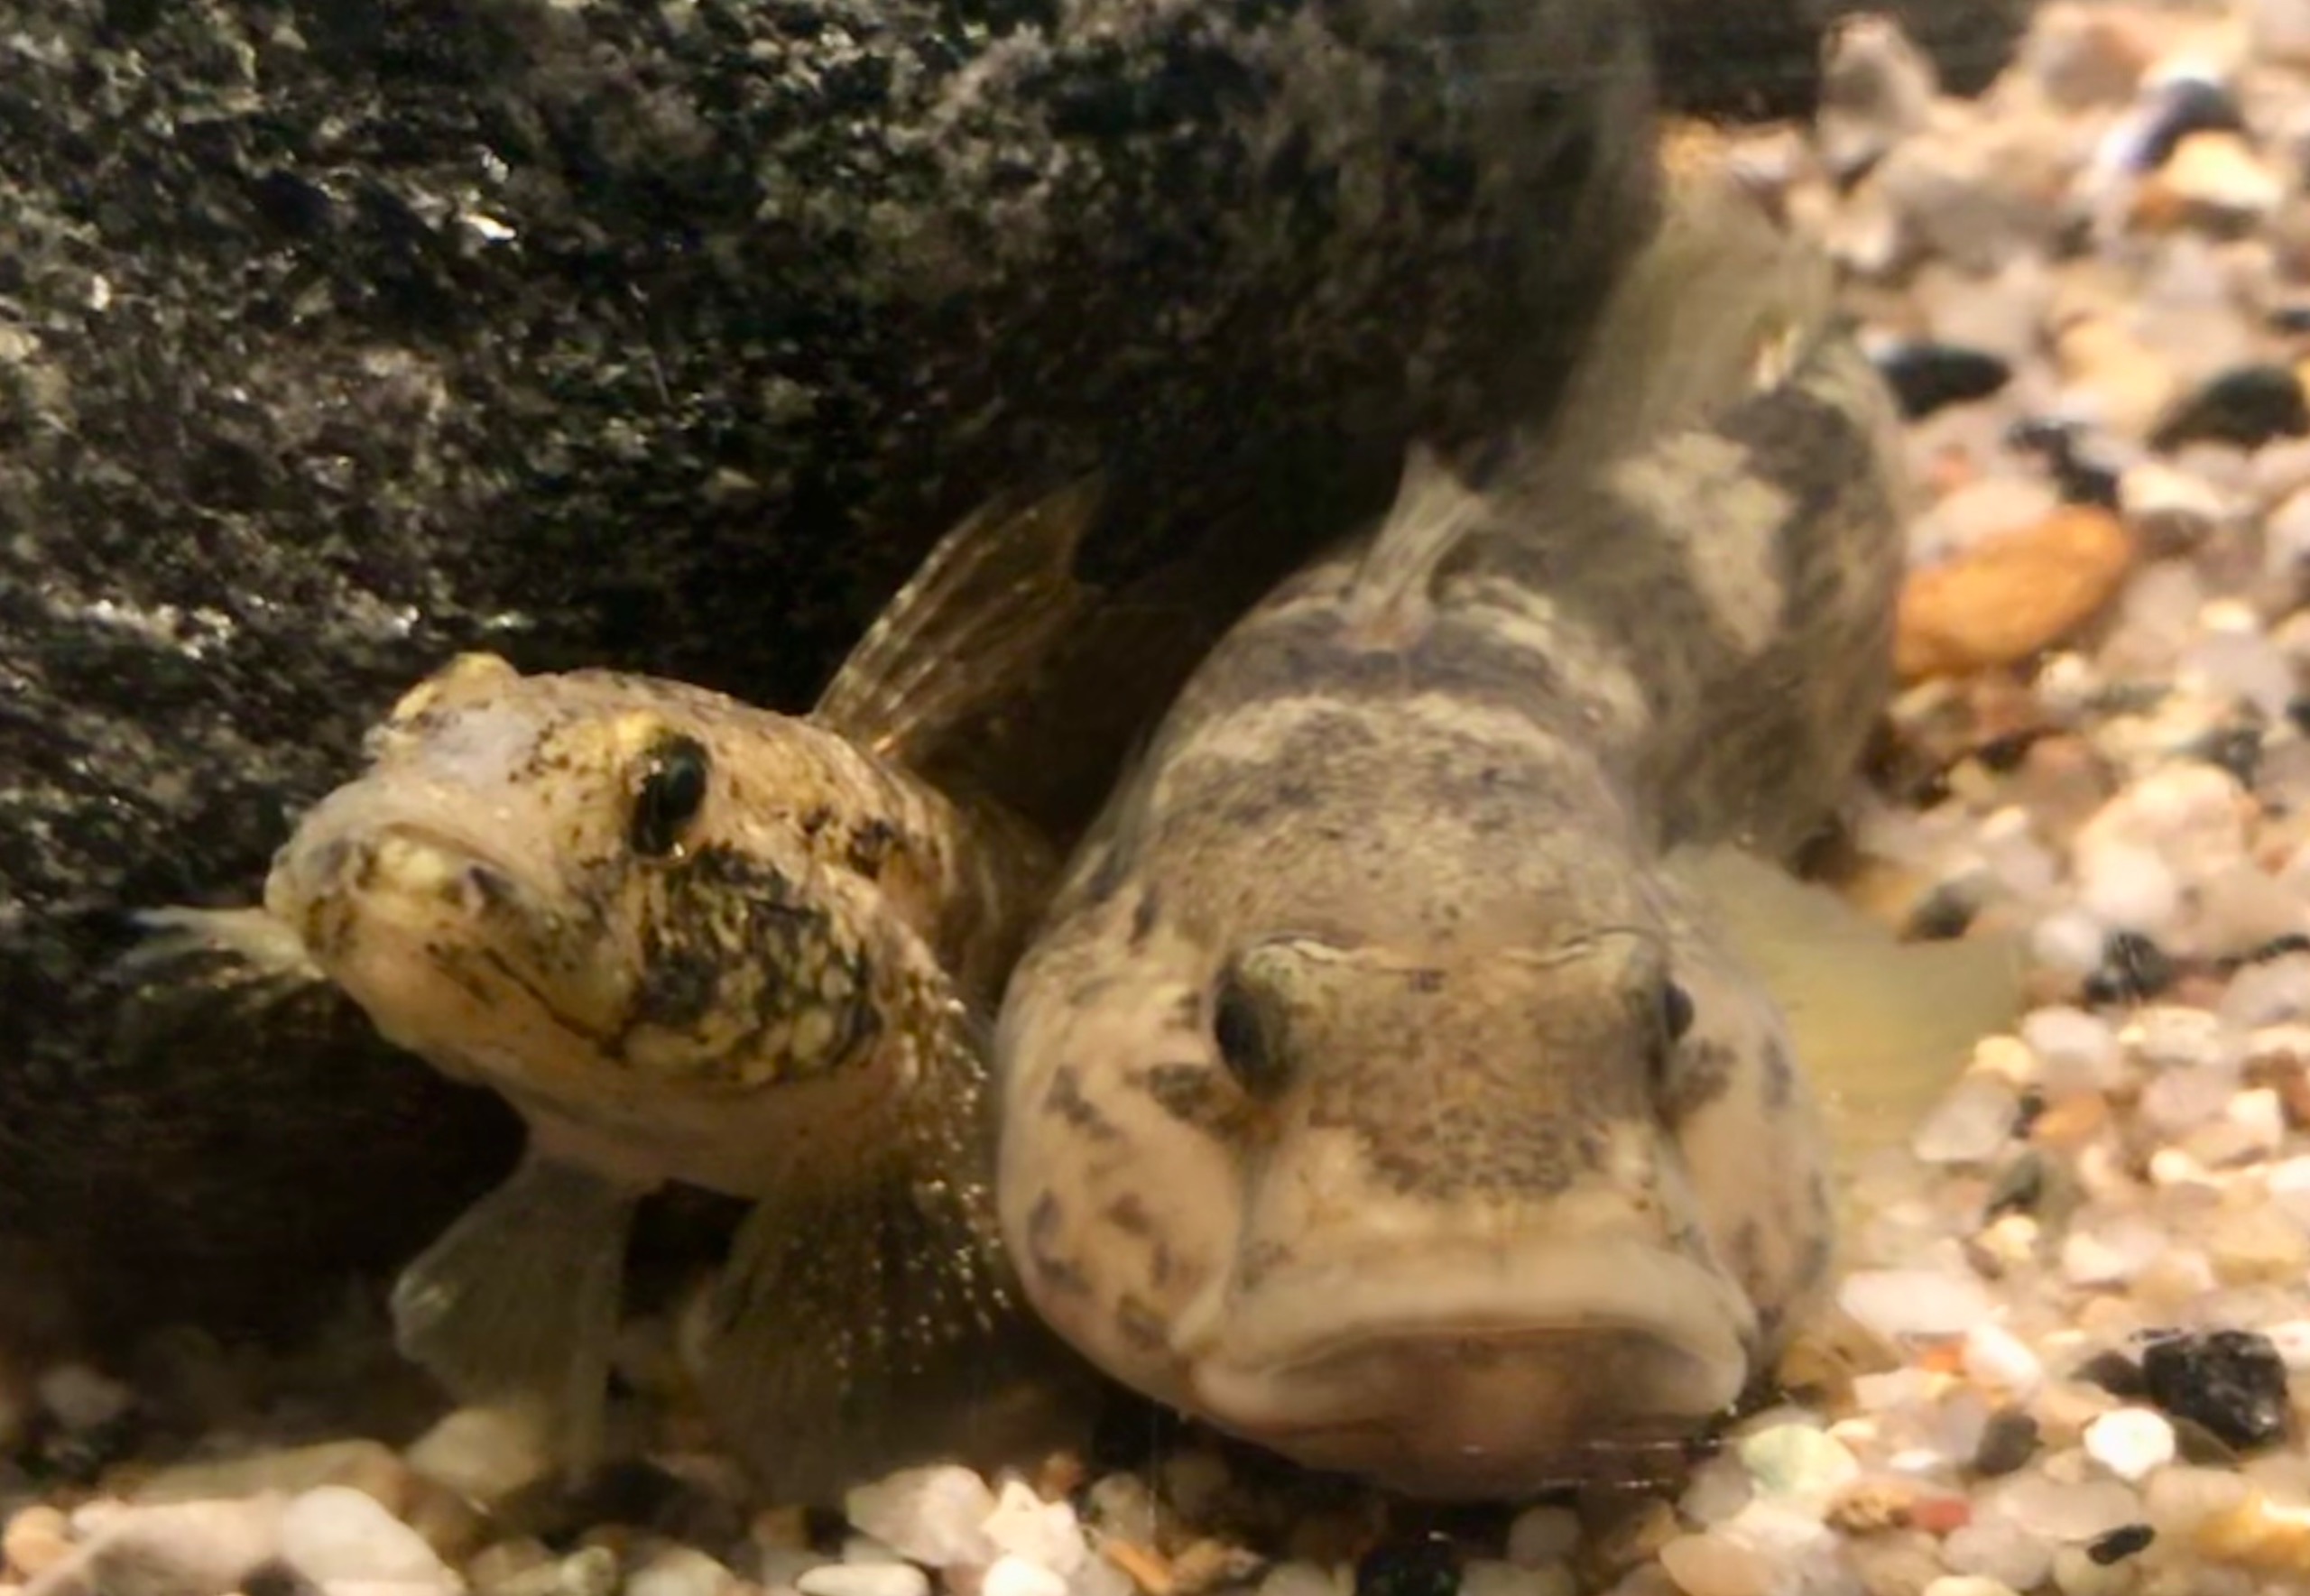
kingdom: Animalia
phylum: Chordata
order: Perciformes
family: Gobiidae
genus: Neogobius
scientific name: Neogobius melanostomus
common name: Sortmundet kutling
